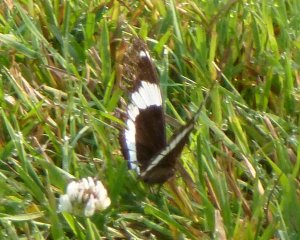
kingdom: Animalia
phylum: Arthropoda
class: Insecta
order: Lepidoptera
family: Nymphalidae
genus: Limenitis
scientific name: Limenitis arthemis
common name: Red-spotted Admiral
